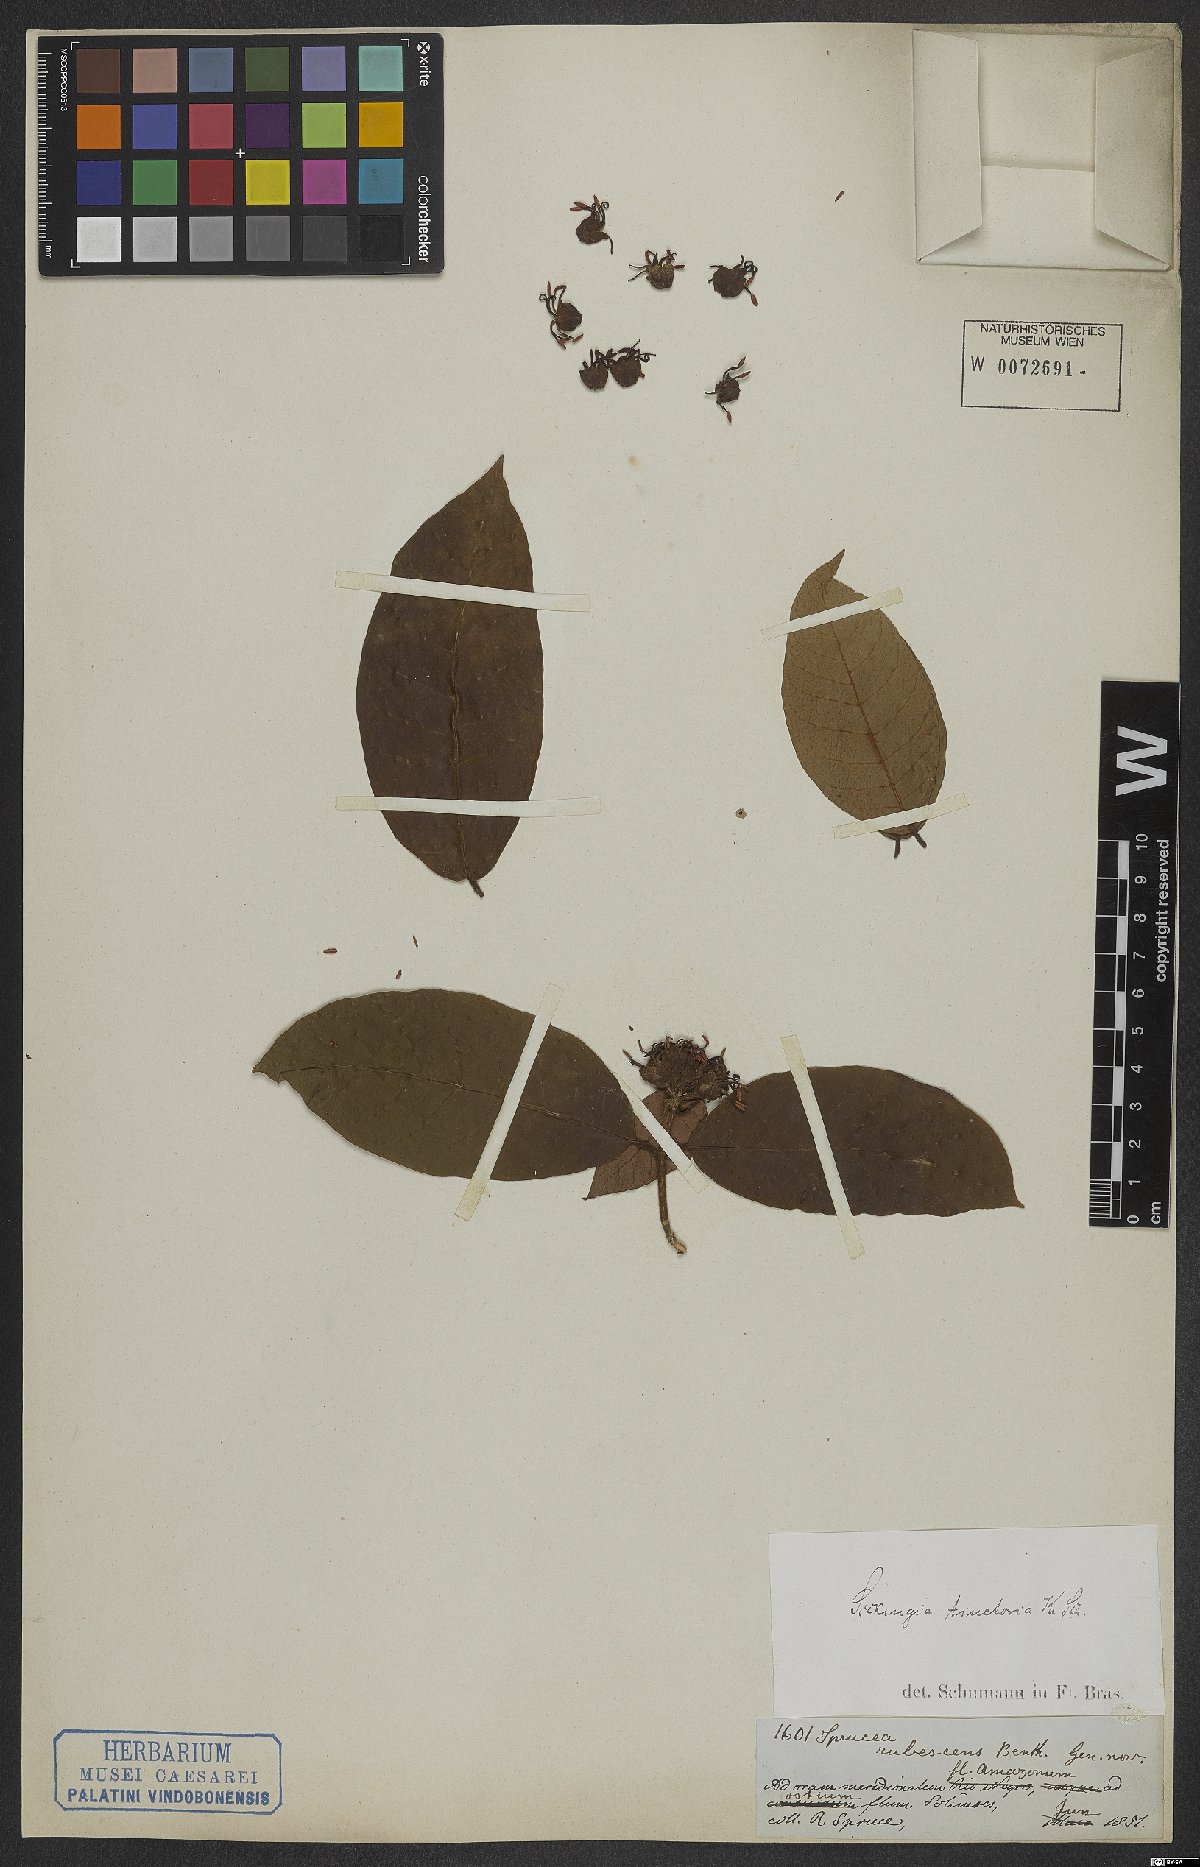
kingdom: Plantae
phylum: Tracheophyta
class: Magnoliopsida
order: Gentianales
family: Rubiaceae
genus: Simira
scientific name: Simira tinctoria
